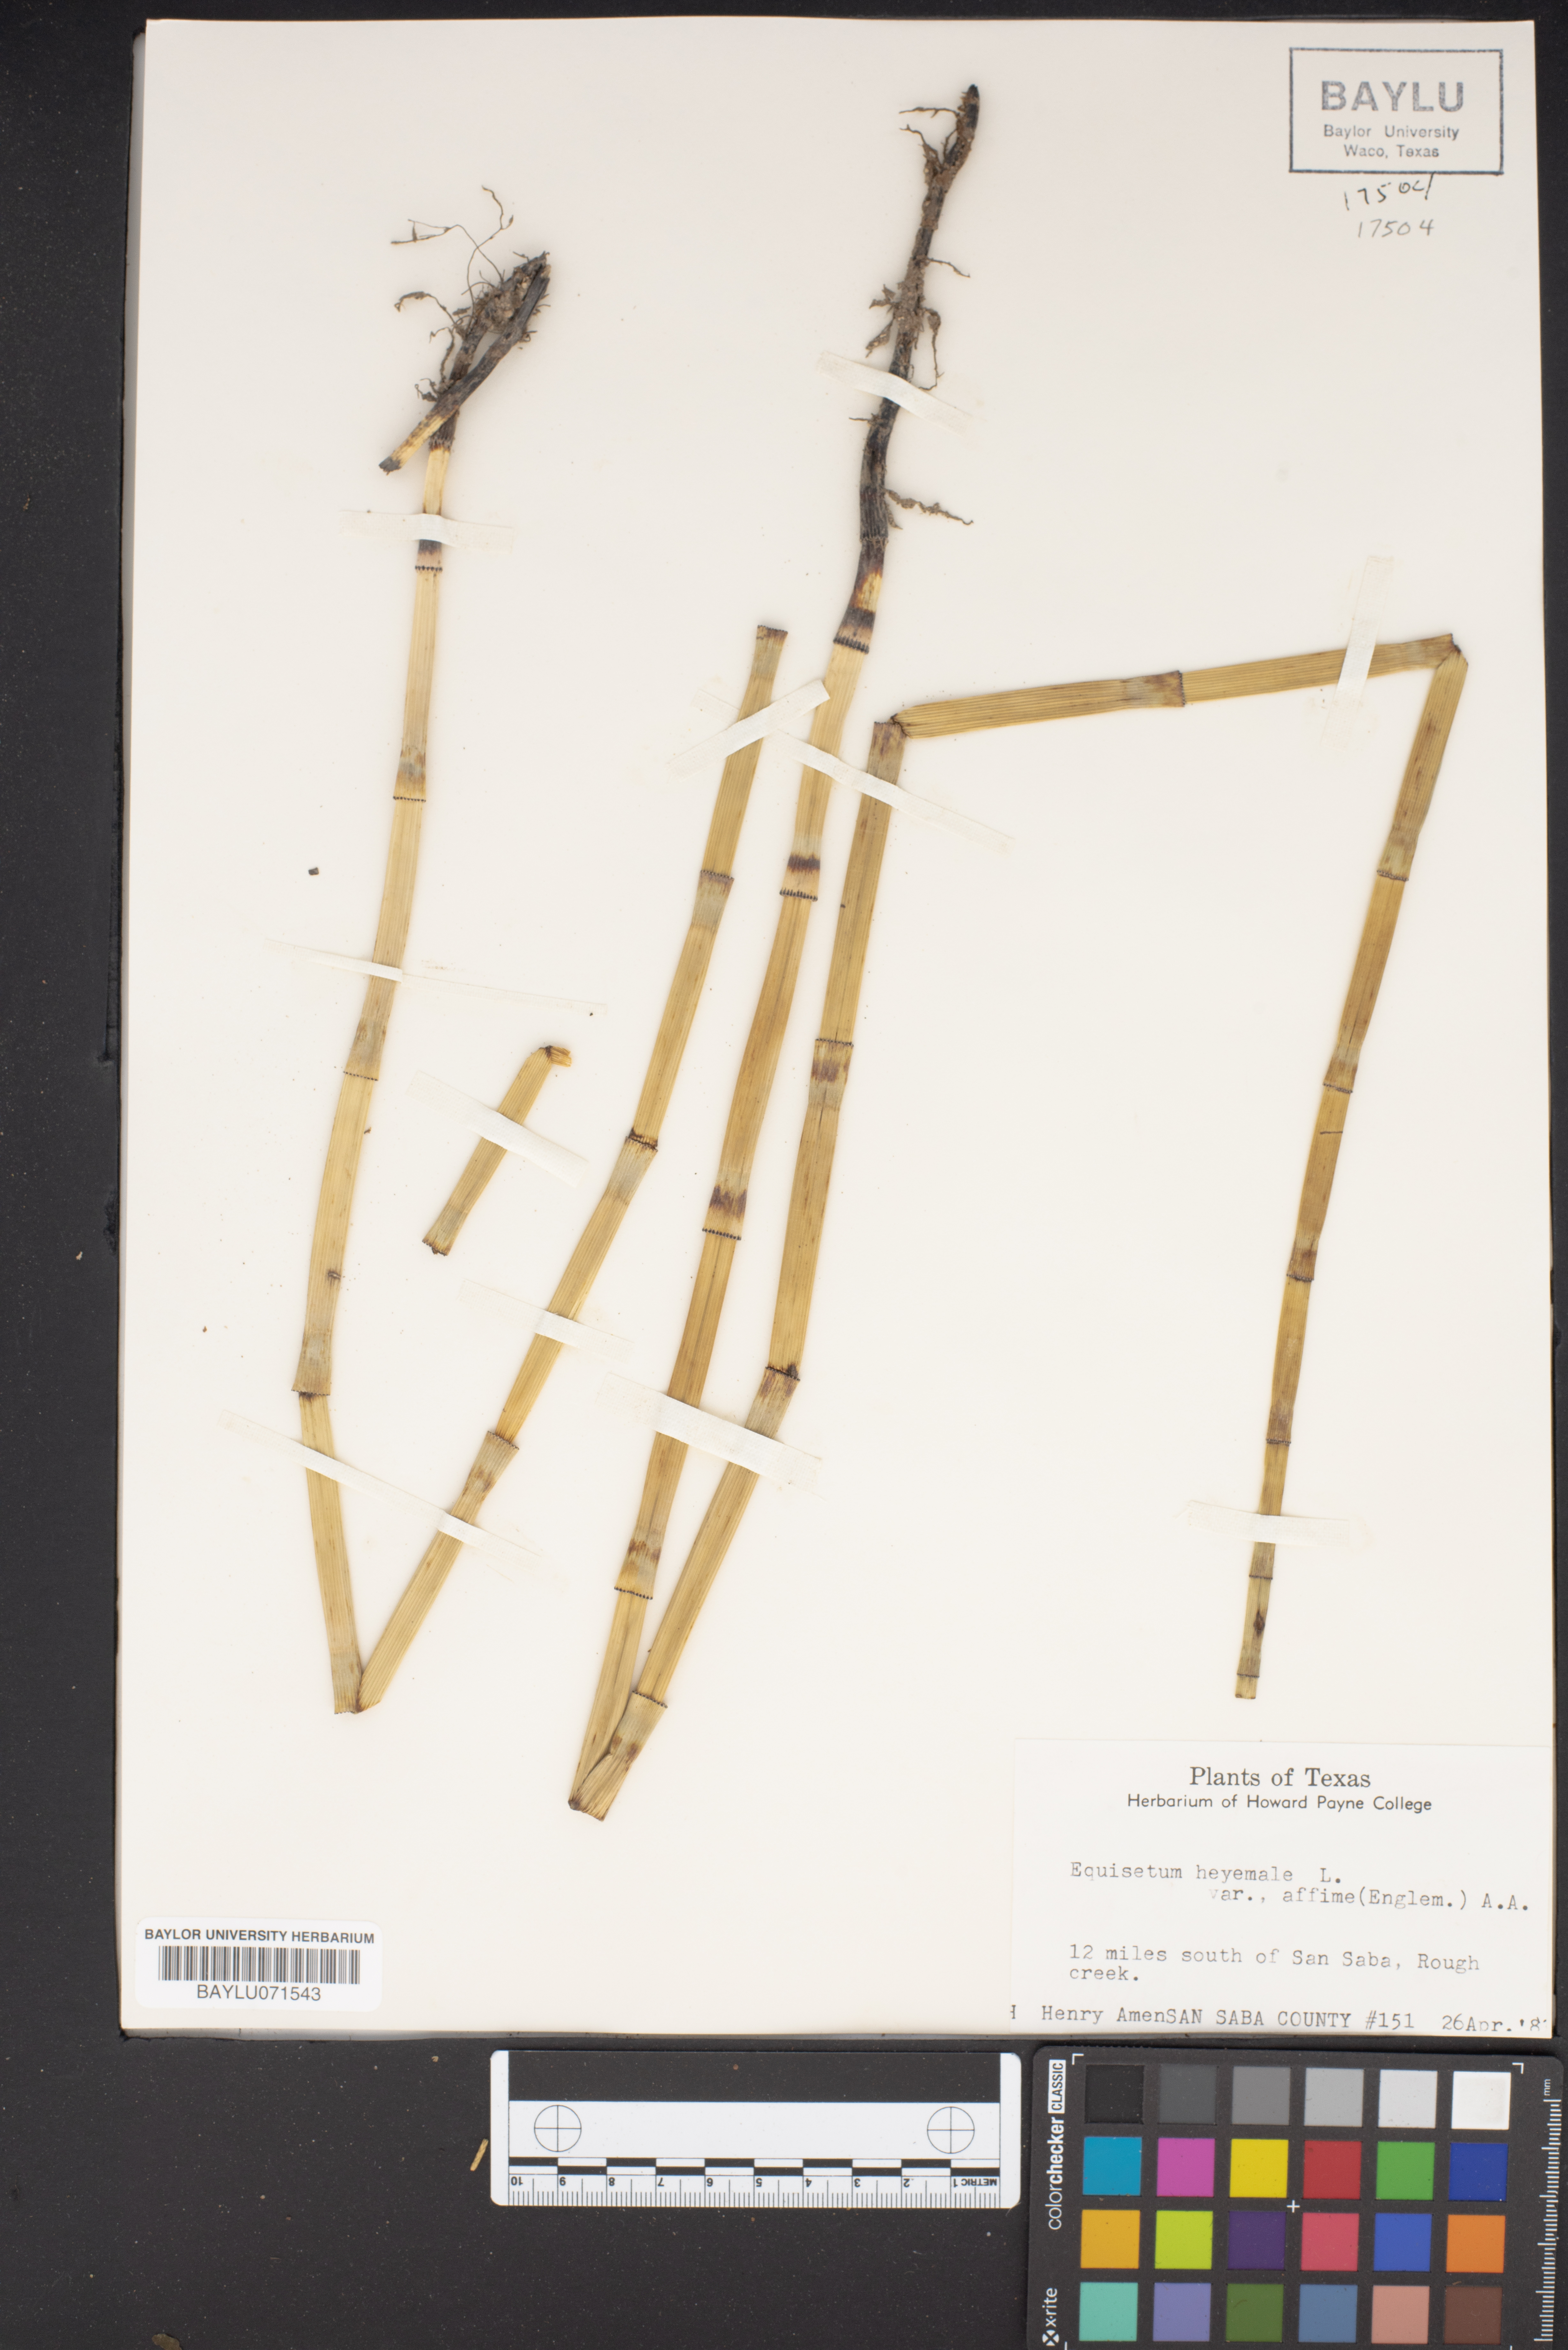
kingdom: Plantae
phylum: Tracheophyta
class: Polypodiopsida
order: Equisetales
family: Equisetaceae
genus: Equisetum
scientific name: Equisetum praealtum
